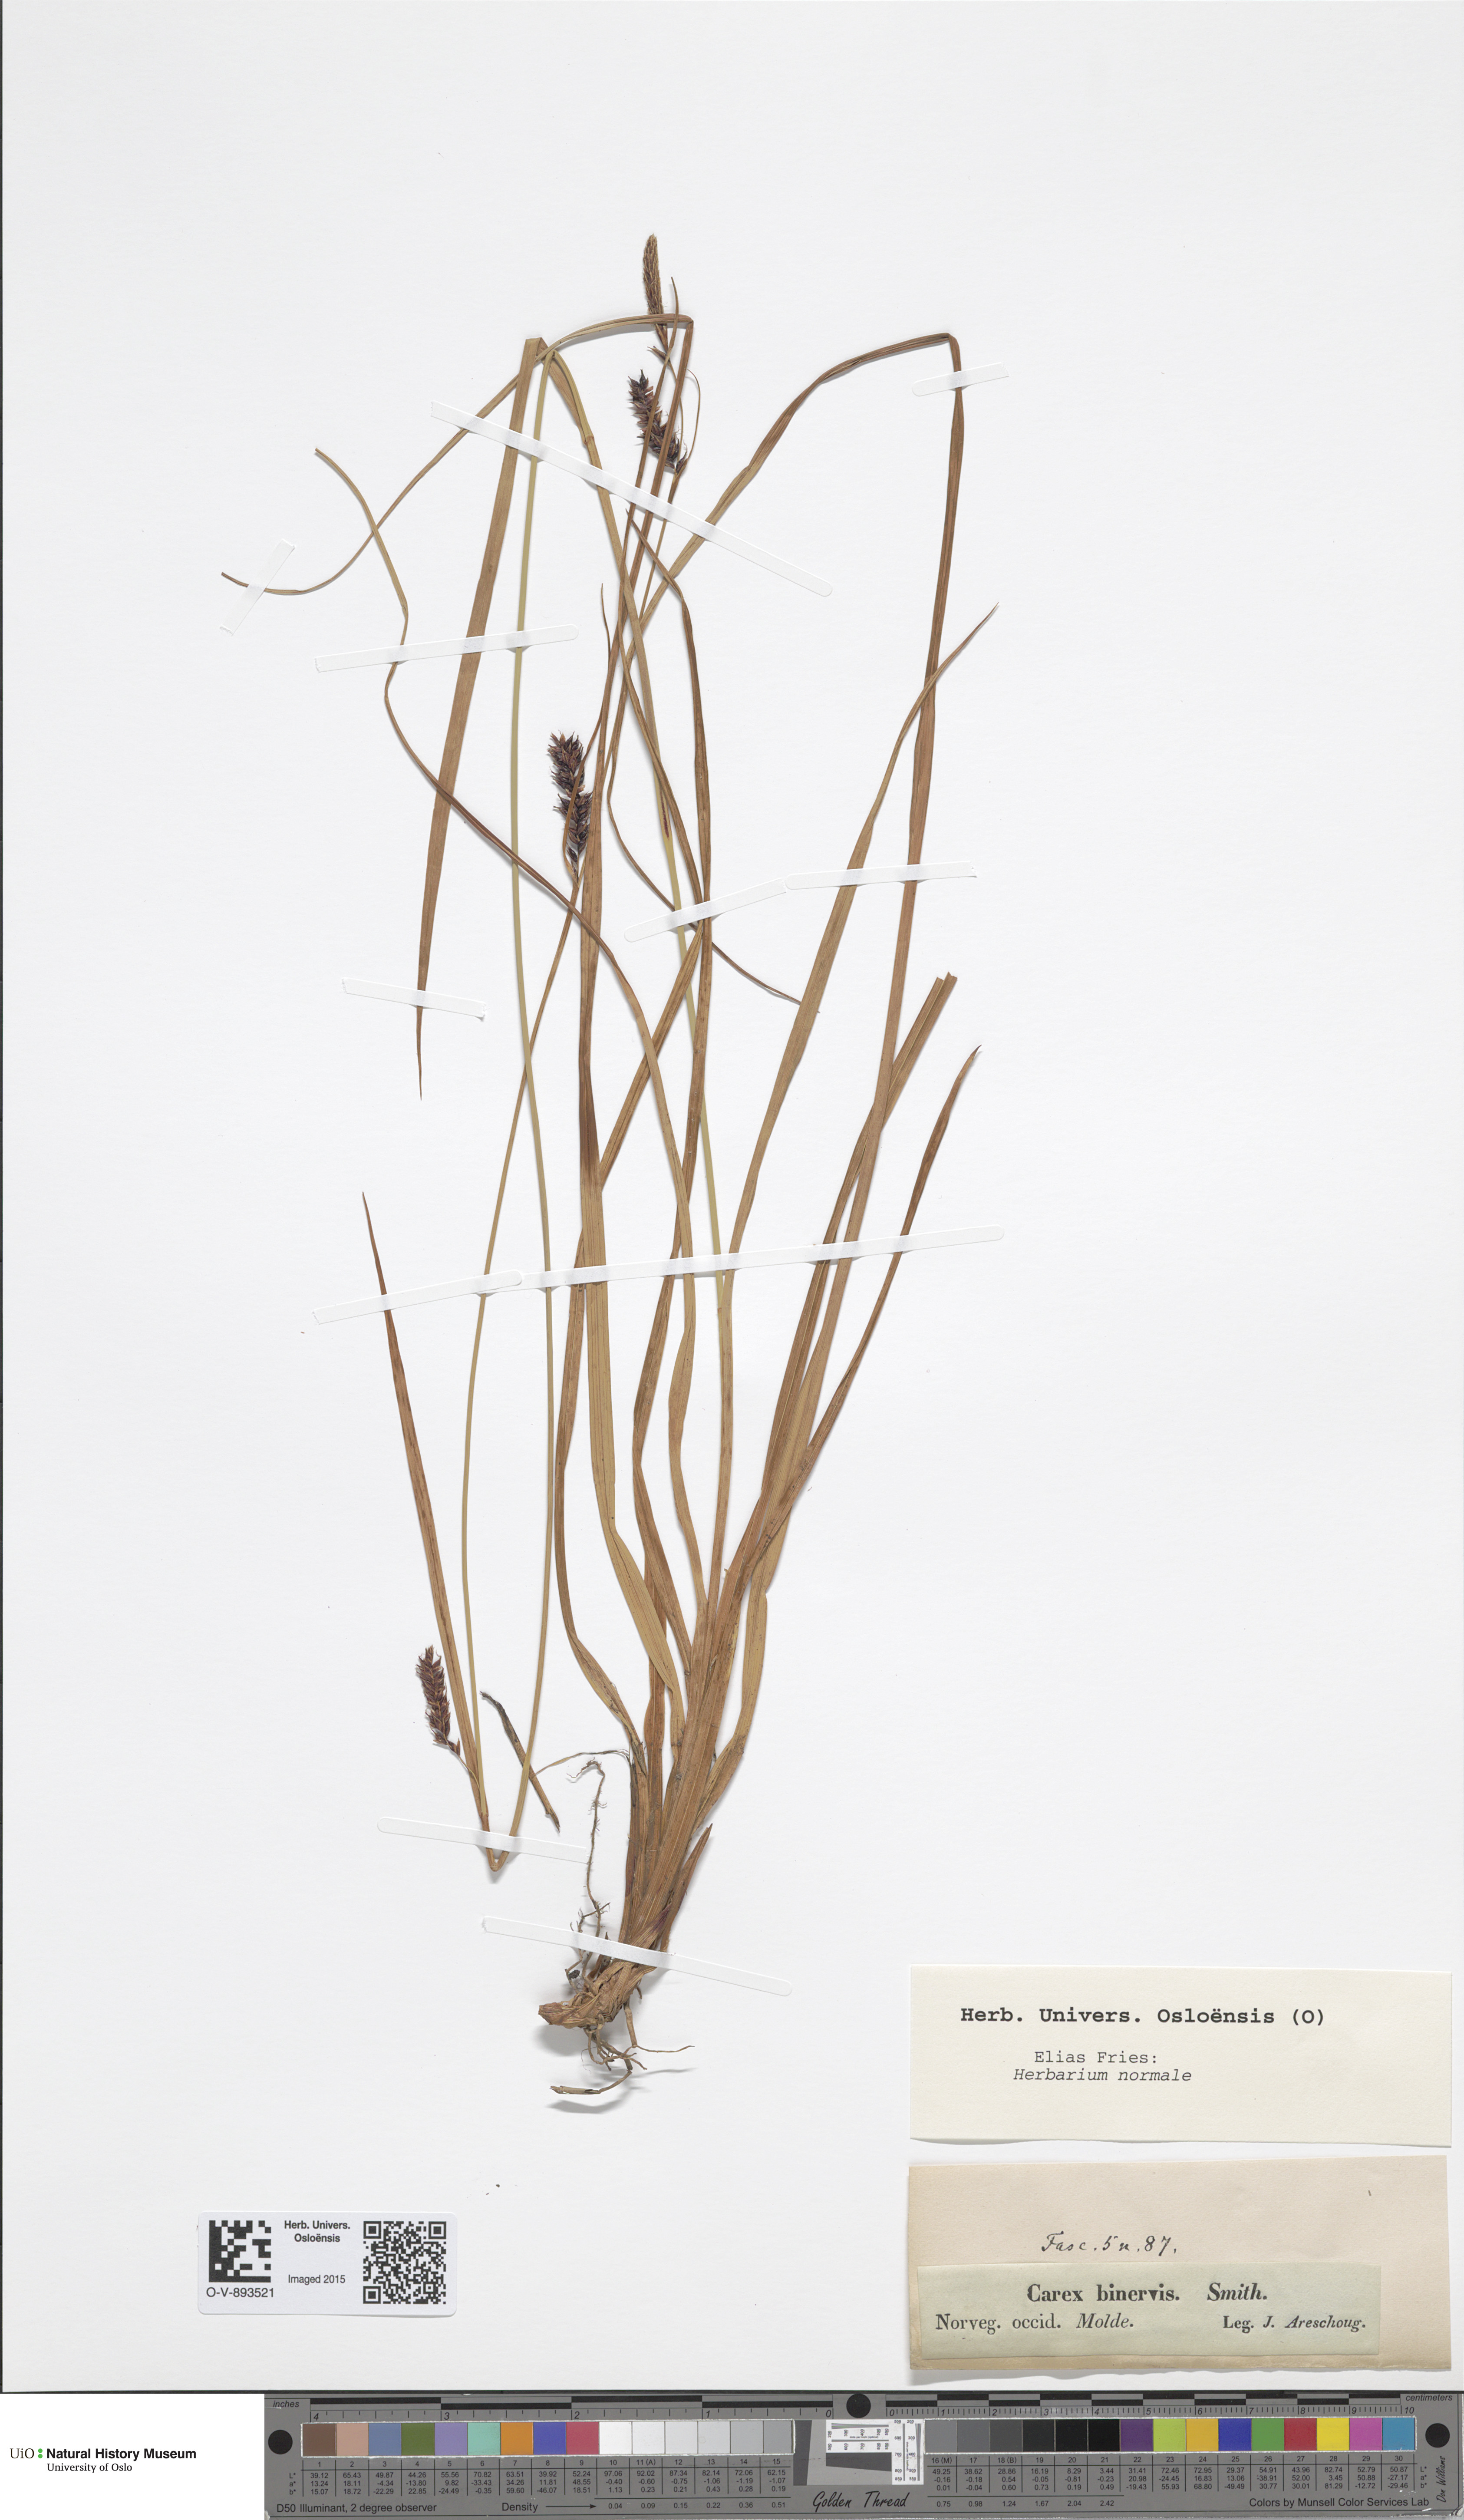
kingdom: Plantae
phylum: Tracheophyta
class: Liliopsida
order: Poales
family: Cyperaceae
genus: Carex
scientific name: Carex binervis
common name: Green-ribbed sedge
